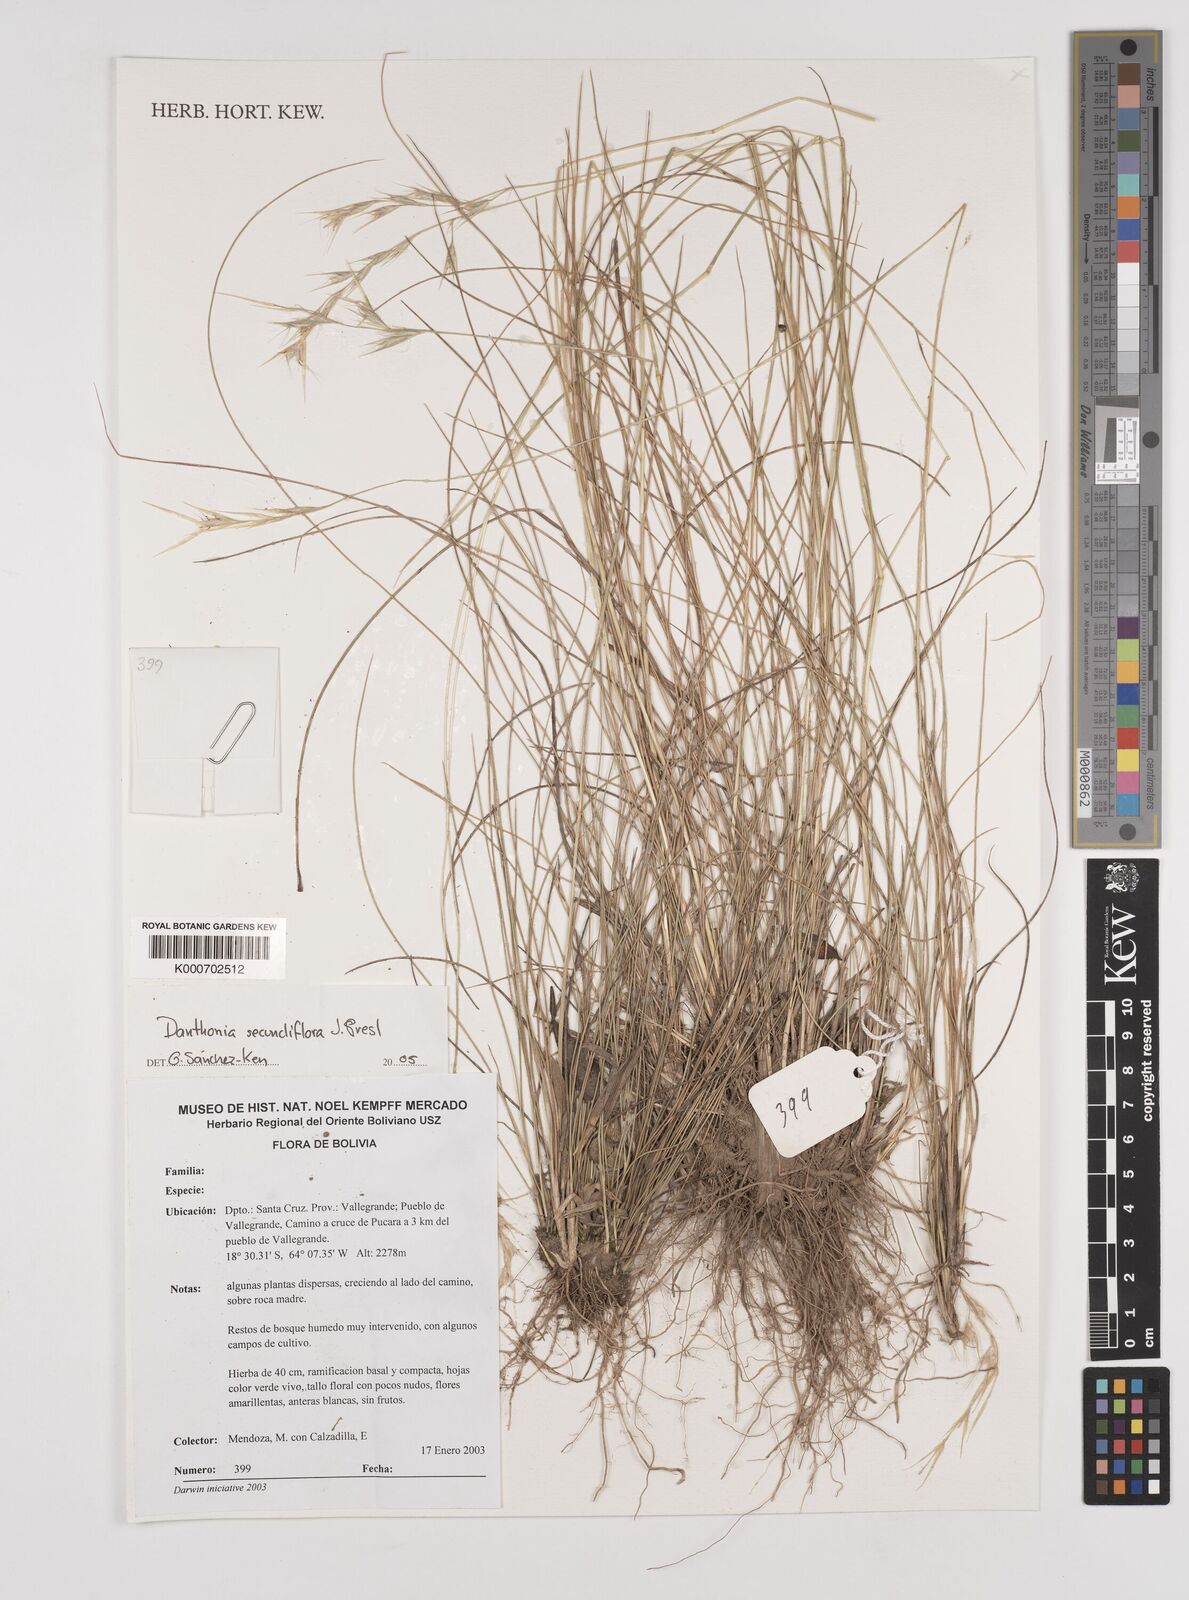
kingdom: Plantae
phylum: Tracheophyta
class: Liliopsida
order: Poales
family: Poaceae
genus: Danthonia
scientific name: Danthonia secundiflora
